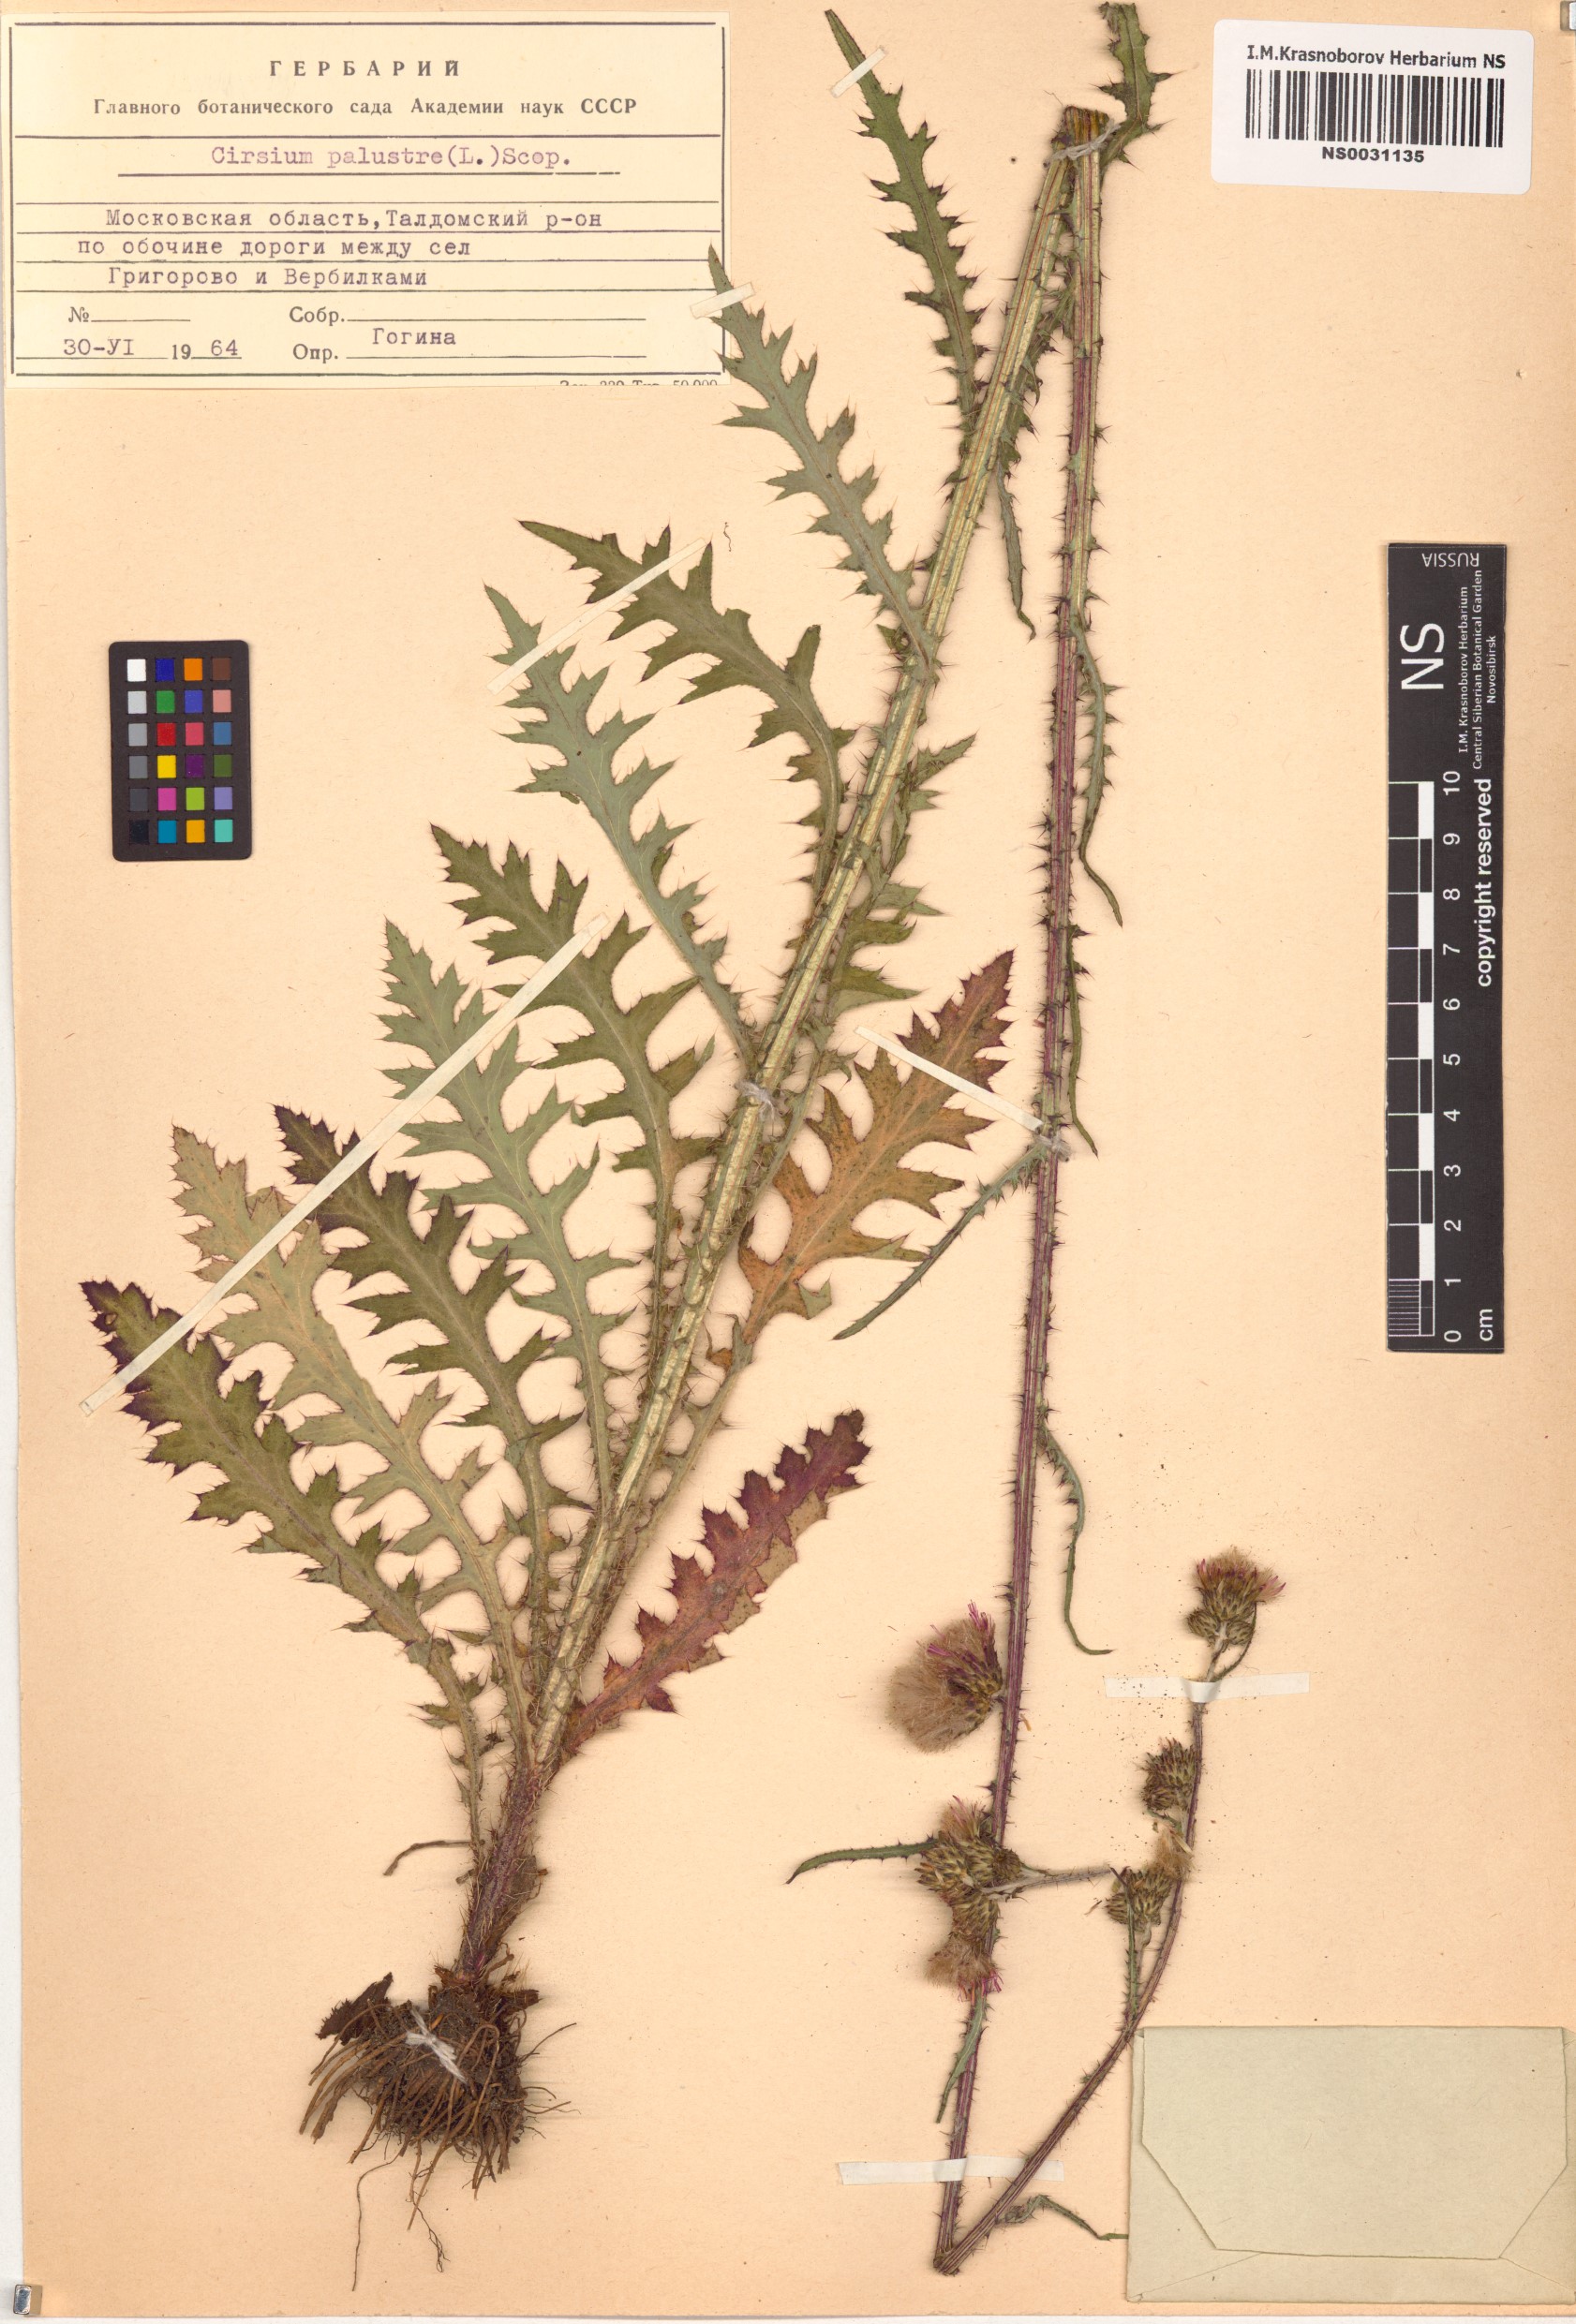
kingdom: Plantae
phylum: Tracheophyta
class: Magnoliopsida
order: Asterales
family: Asteraceae
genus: Cirsium
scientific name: Cirsium palustre
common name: Marsh thistle
